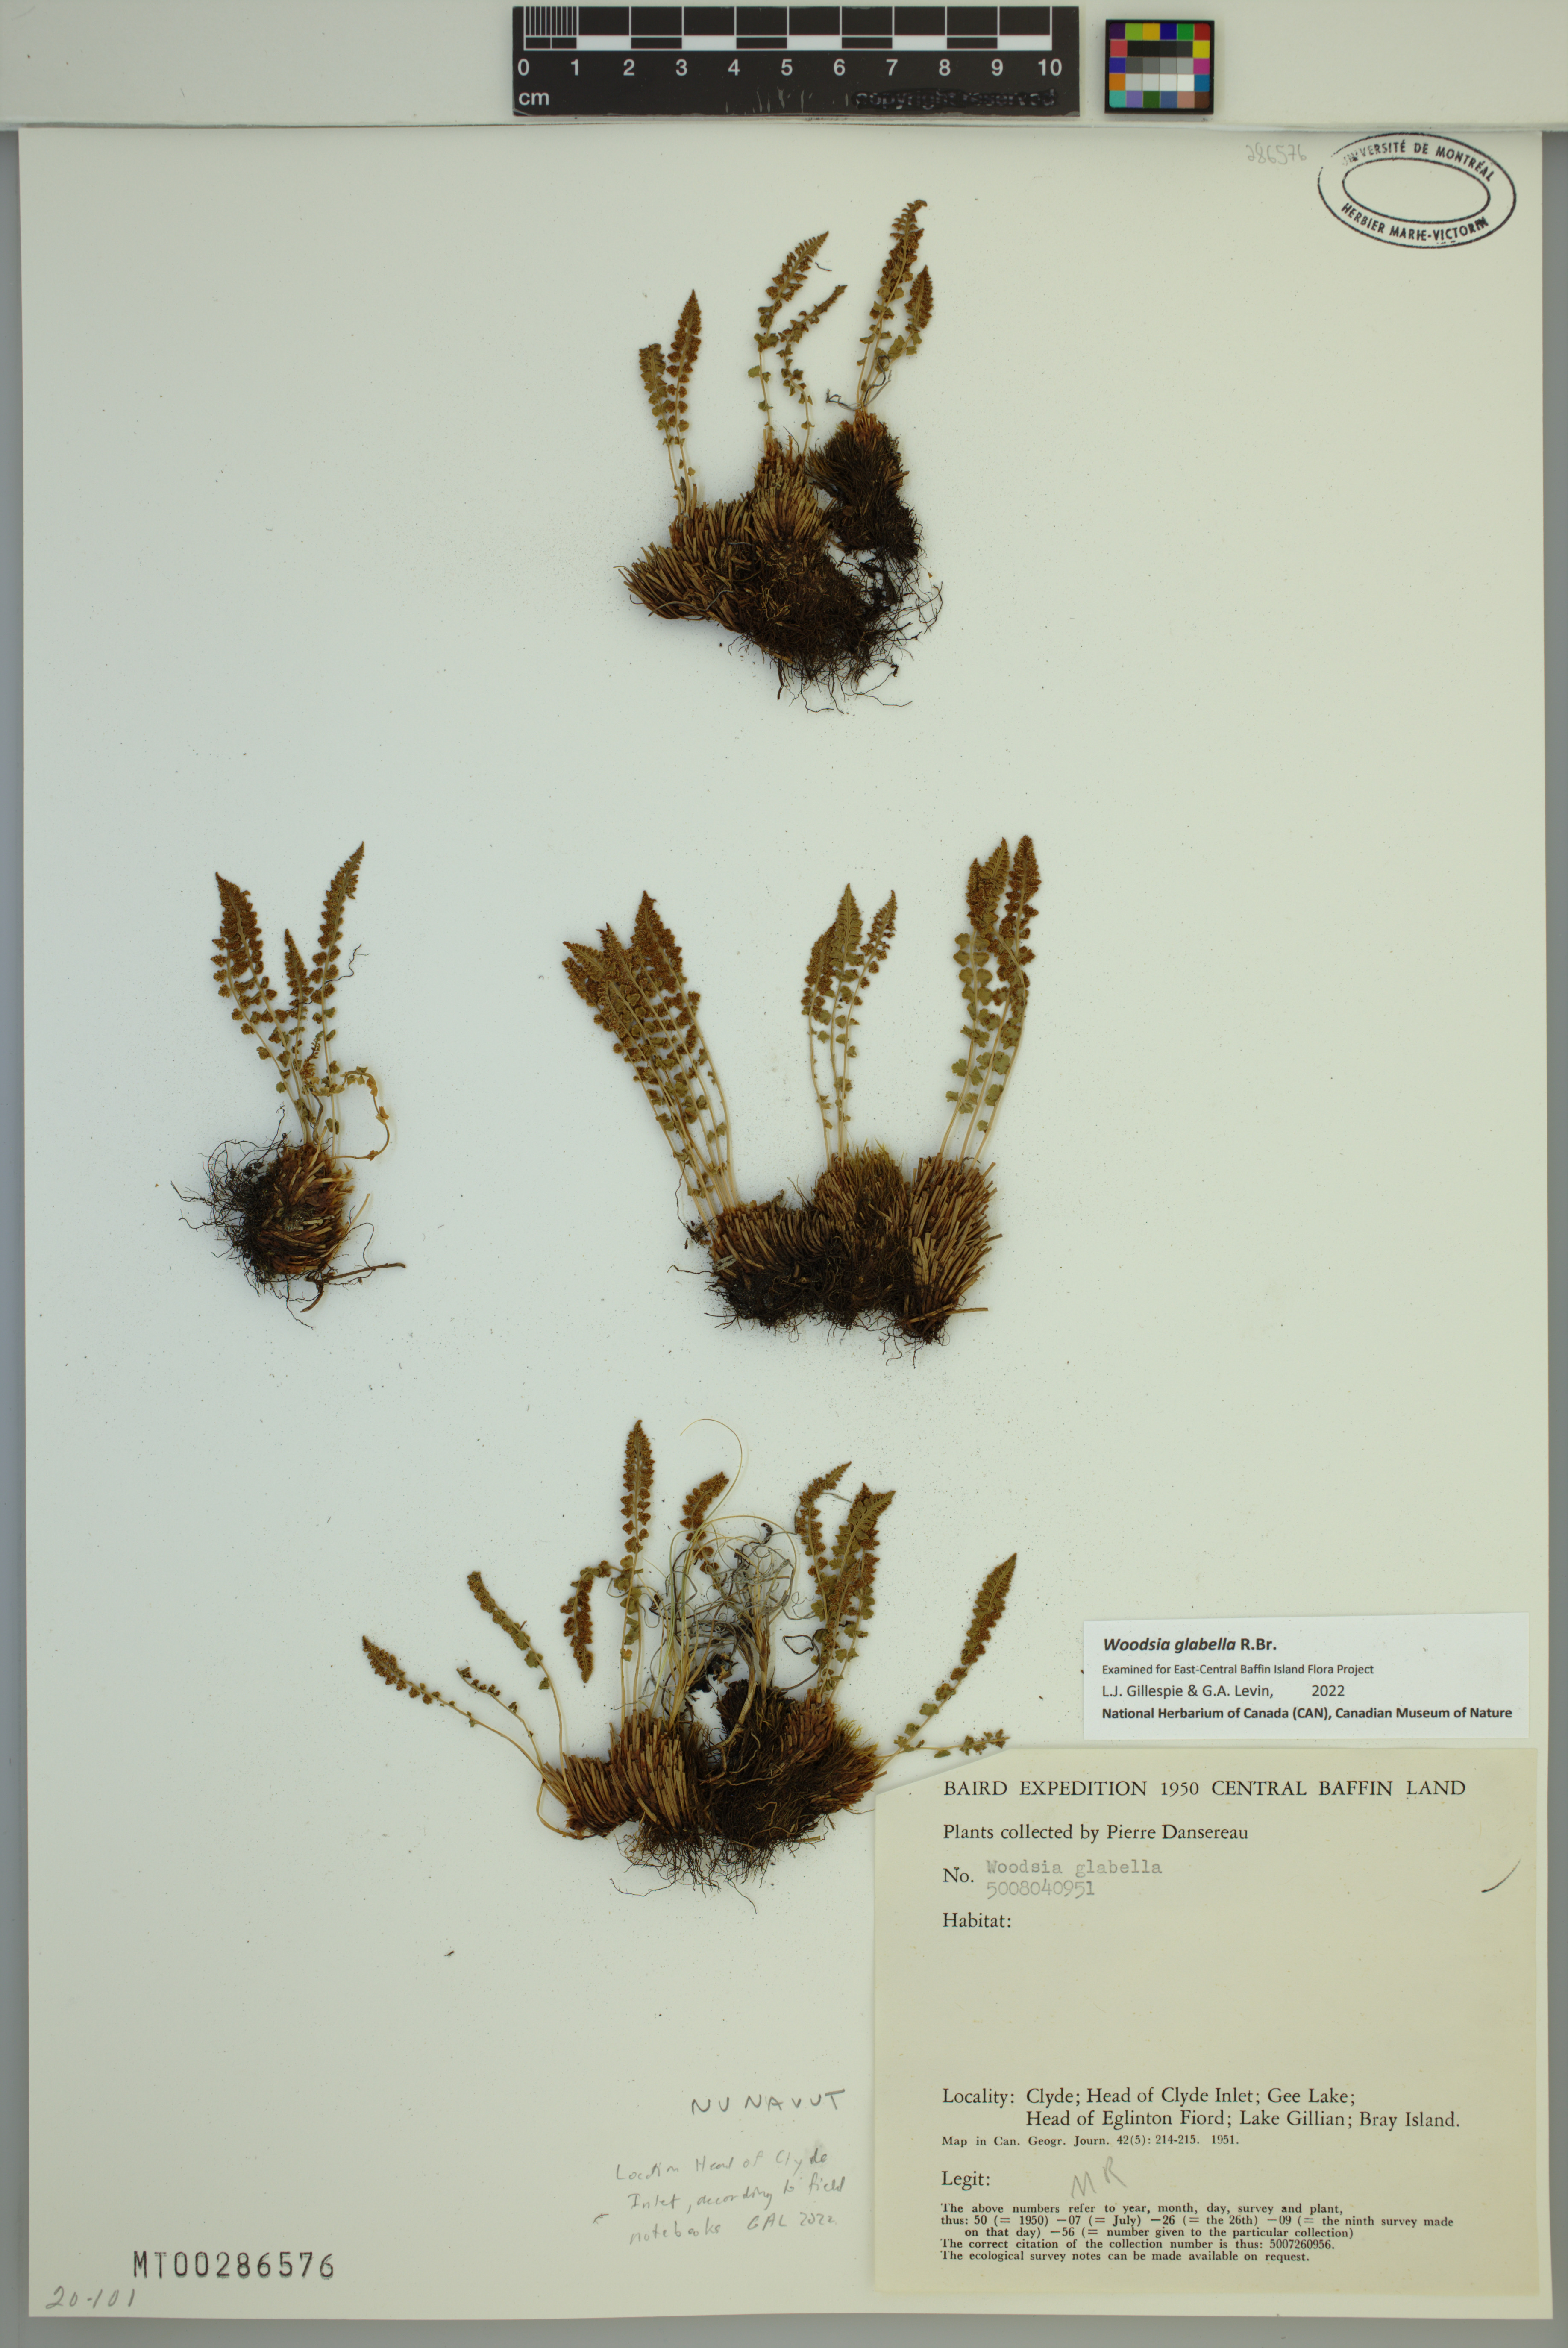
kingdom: Plantae
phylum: Tracheophyta
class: Polypodiopsida
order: Polypodiales
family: Woodsiaceae
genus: Woodsia
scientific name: Woodsia glabella
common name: Smooth woodsia
